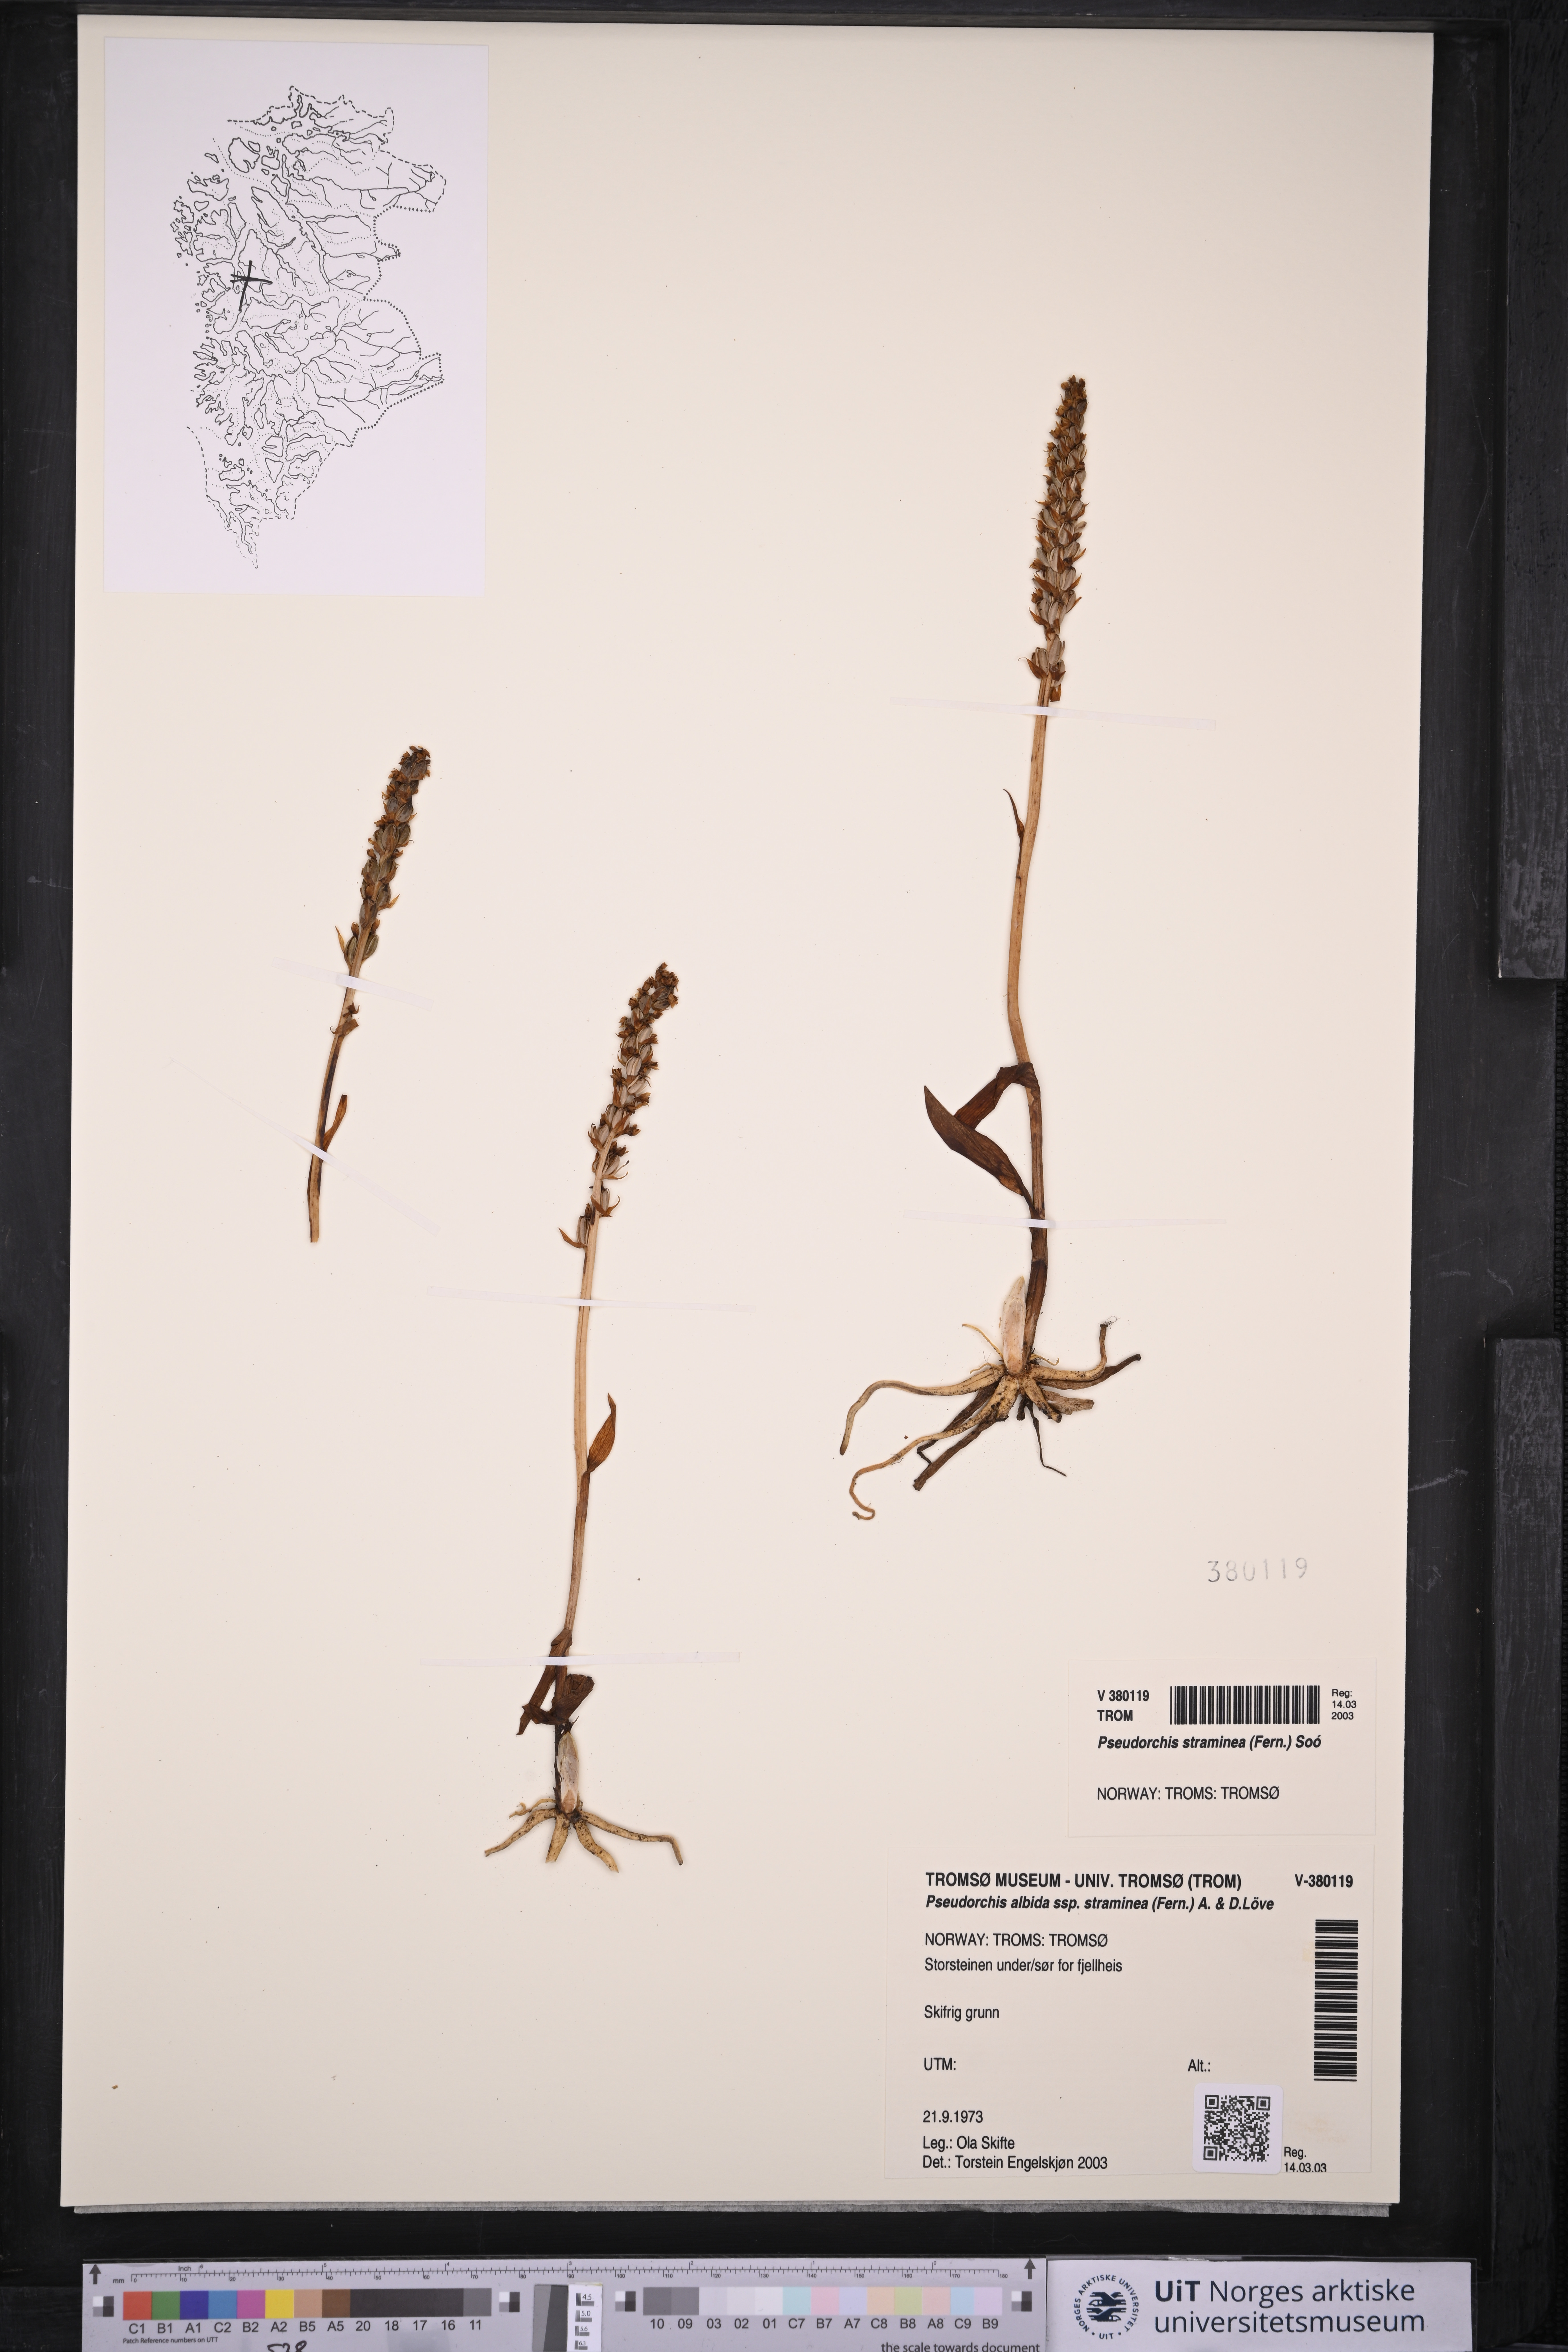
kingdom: Plantae
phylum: Tracheophyta
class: Liliopsida
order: Asparagales
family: Orchidaceae
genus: Pseudorchis
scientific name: Pseudorchis straminea
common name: Vanilla-scented bog orchid
